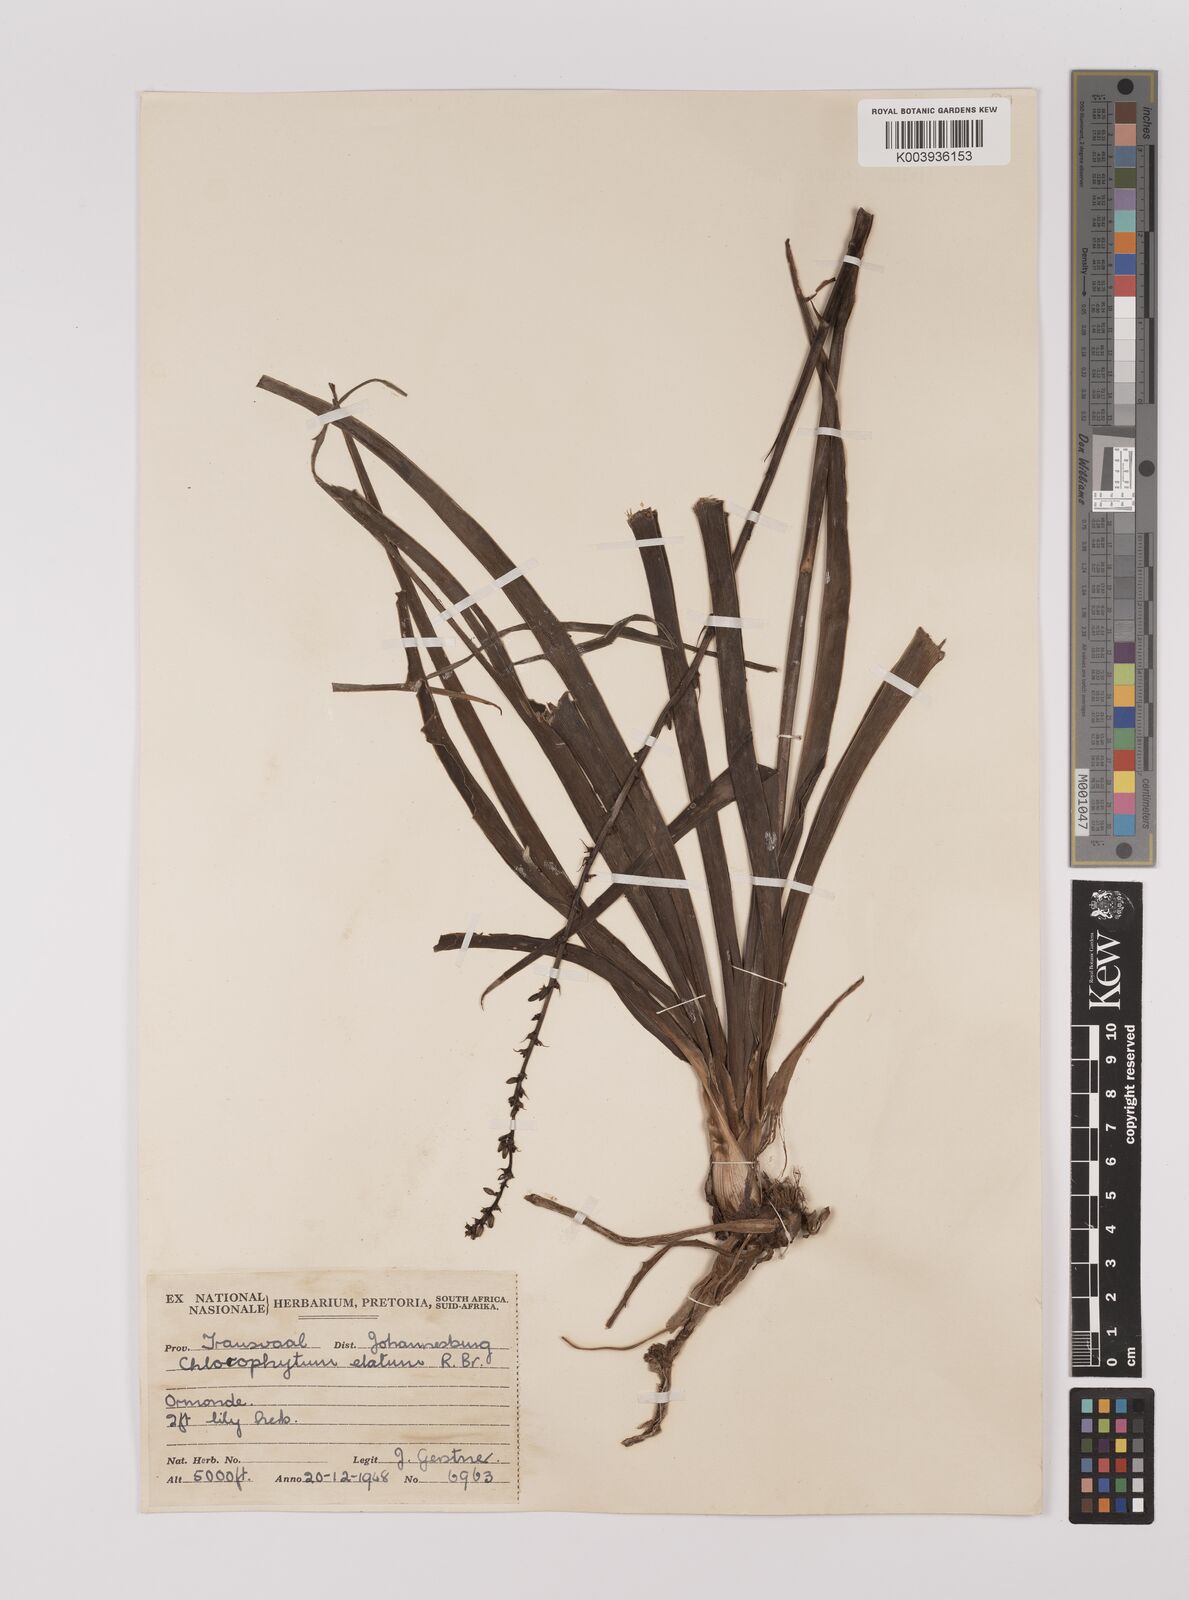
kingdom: Plantae
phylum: Tracheophyta
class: Liliopsida
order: Asparagales
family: Asparagaceae
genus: Chlorophytum
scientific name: Chlorophytum
